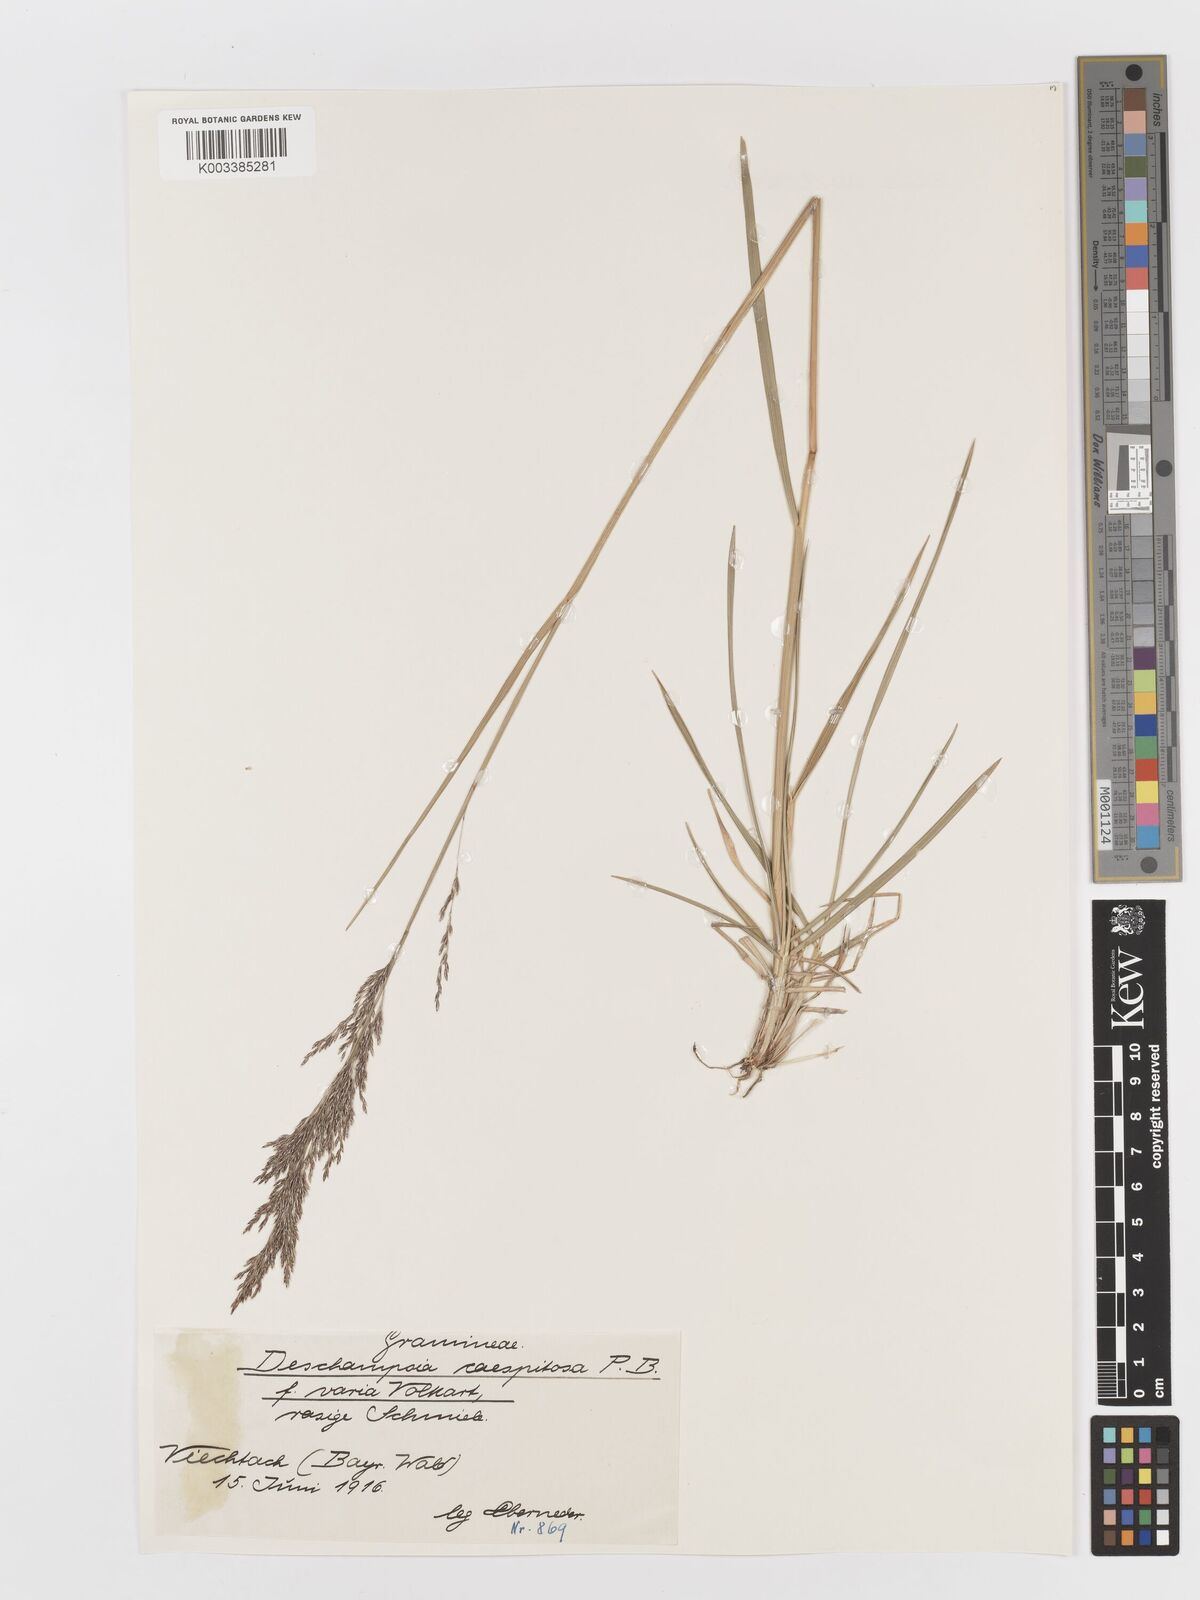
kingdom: Plantae
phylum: Tracheophyta
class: Liliopsida
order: Poales
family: Poaceae
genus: Deschampsia
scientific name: Deschampsia cespitosa
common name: Tufted hair-grass
